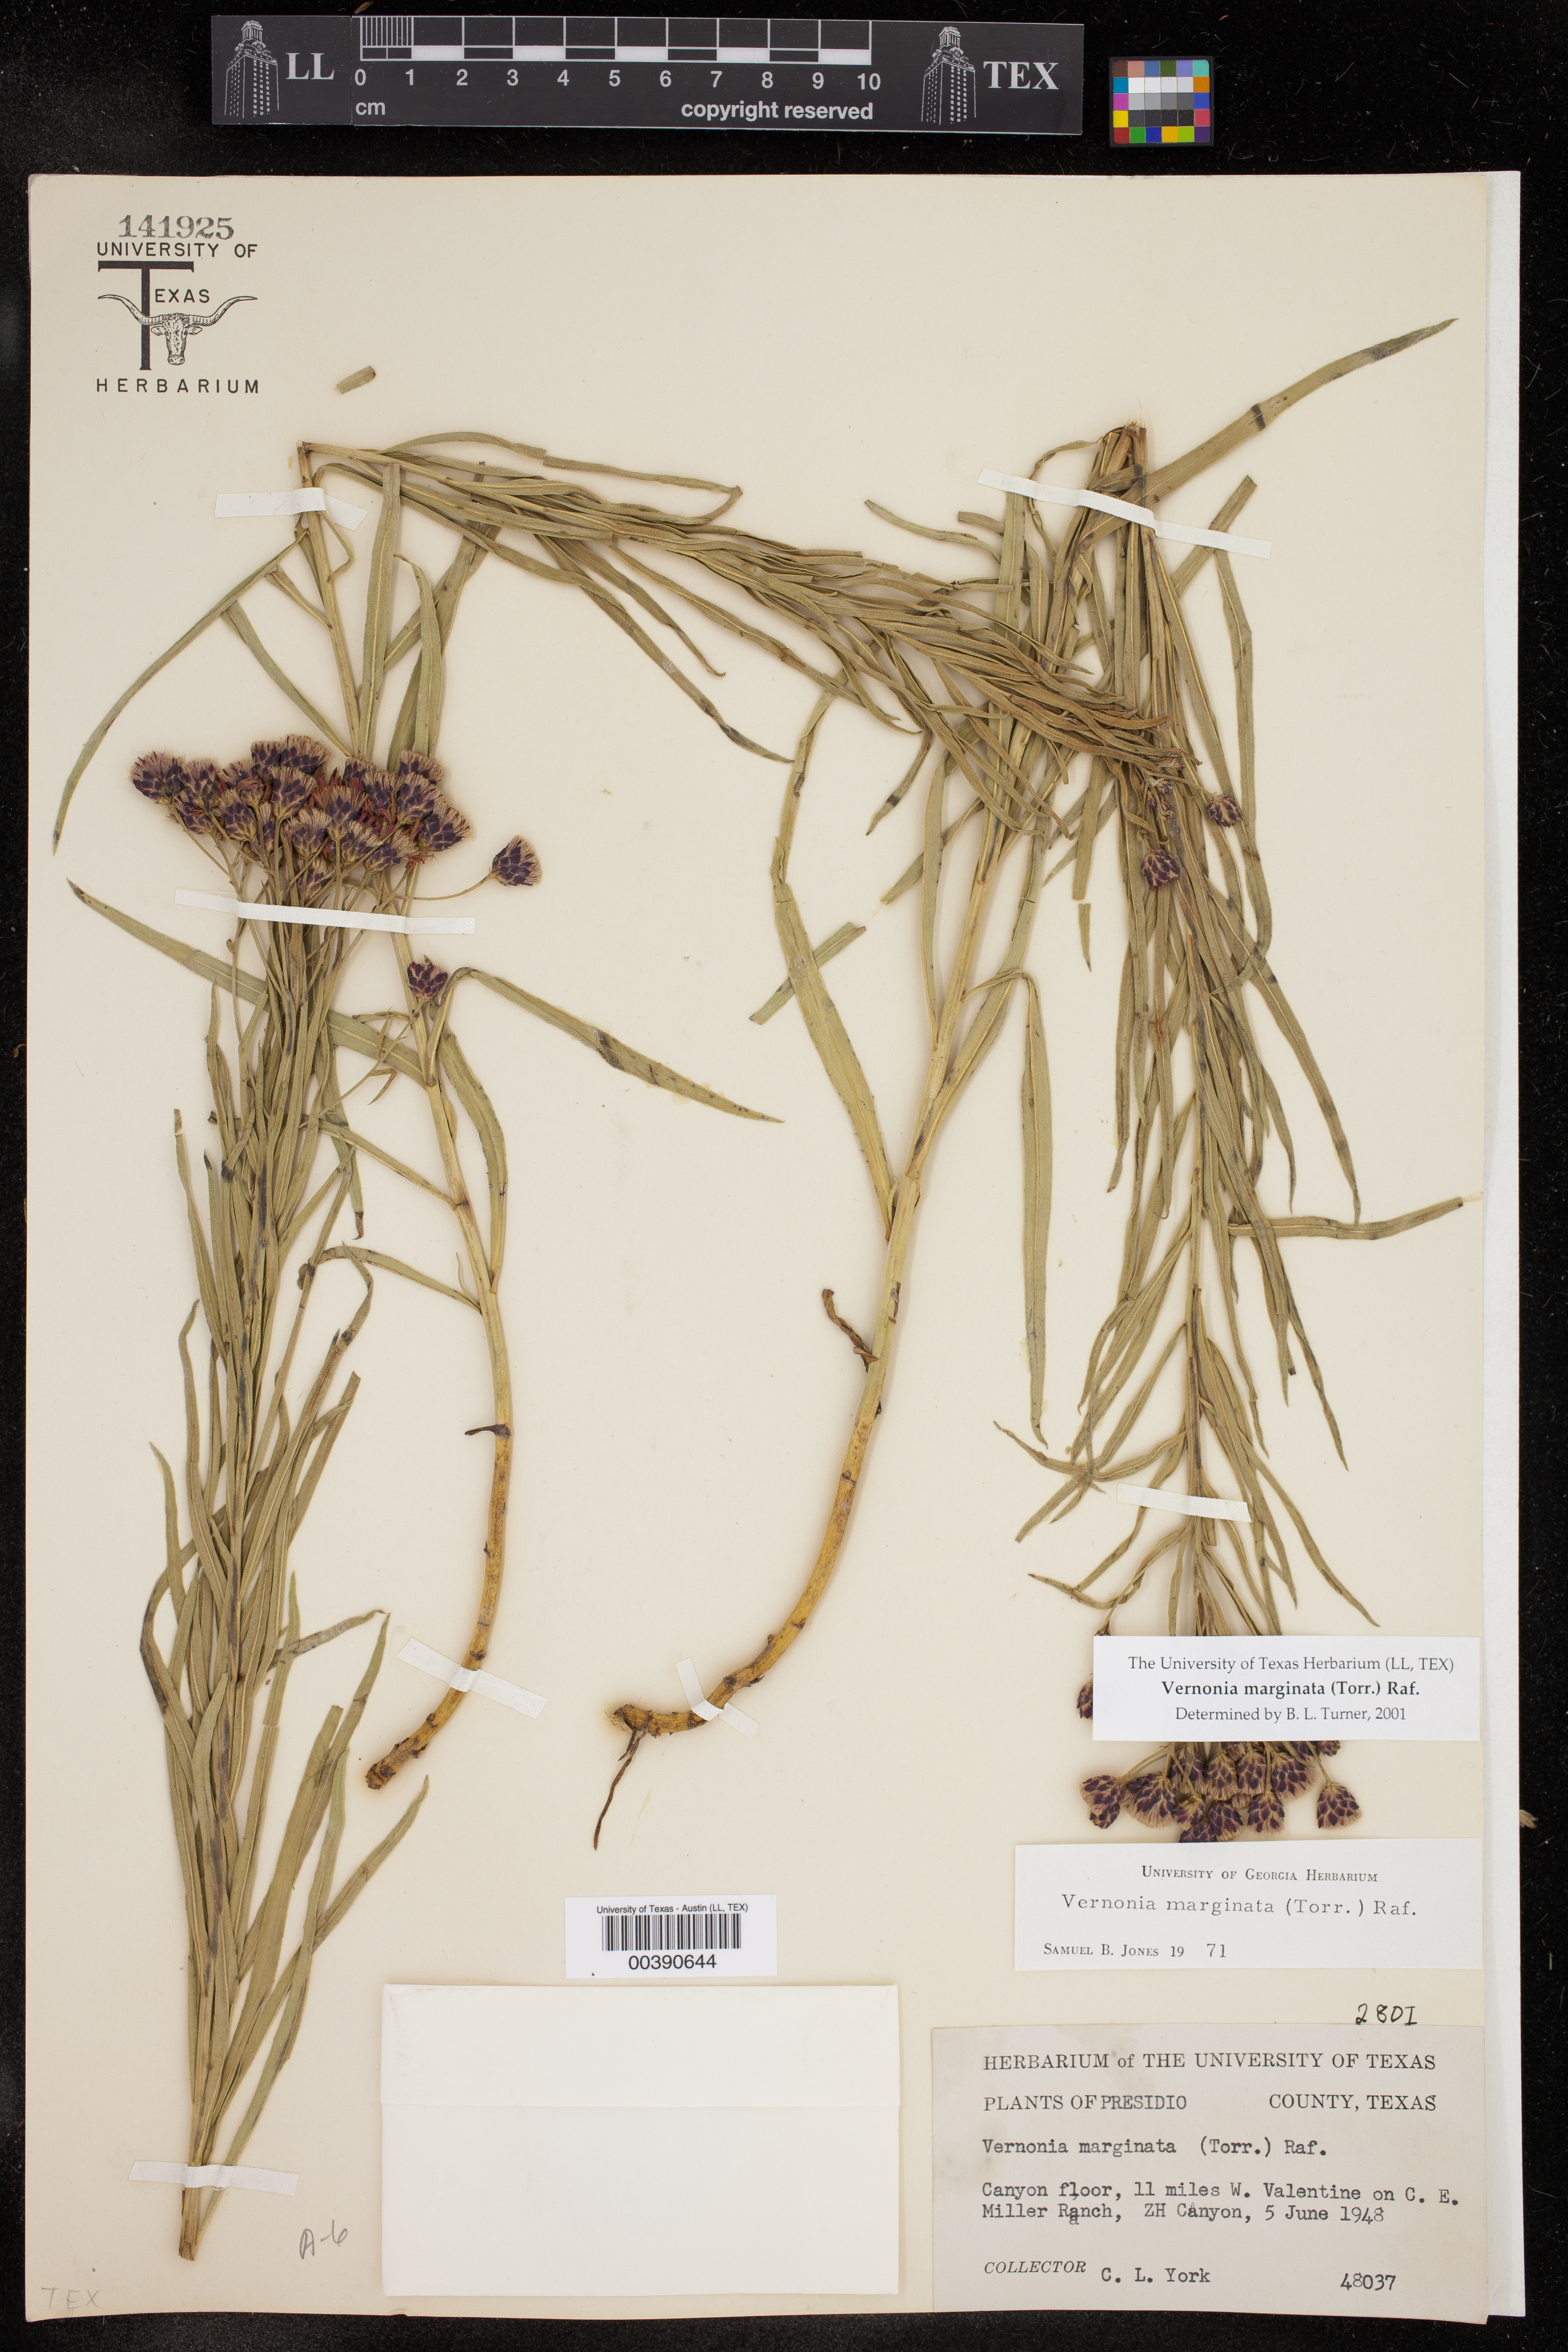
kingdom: Plantae
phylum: Tracheophyta
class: Magnoliopsida
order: Asterales
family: Asteraceae
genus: Vernonia
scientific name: Vernonia marginata
